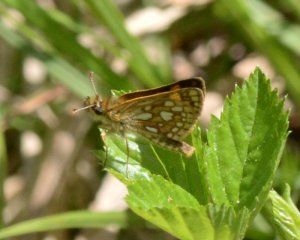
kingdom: Animalia
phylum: Arthropoda
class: Insecta
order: Lepidoptera
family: Hesperiidae
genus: Carterocephalus
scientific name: Carterocephalus palaemon
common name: Chequered Skipper
